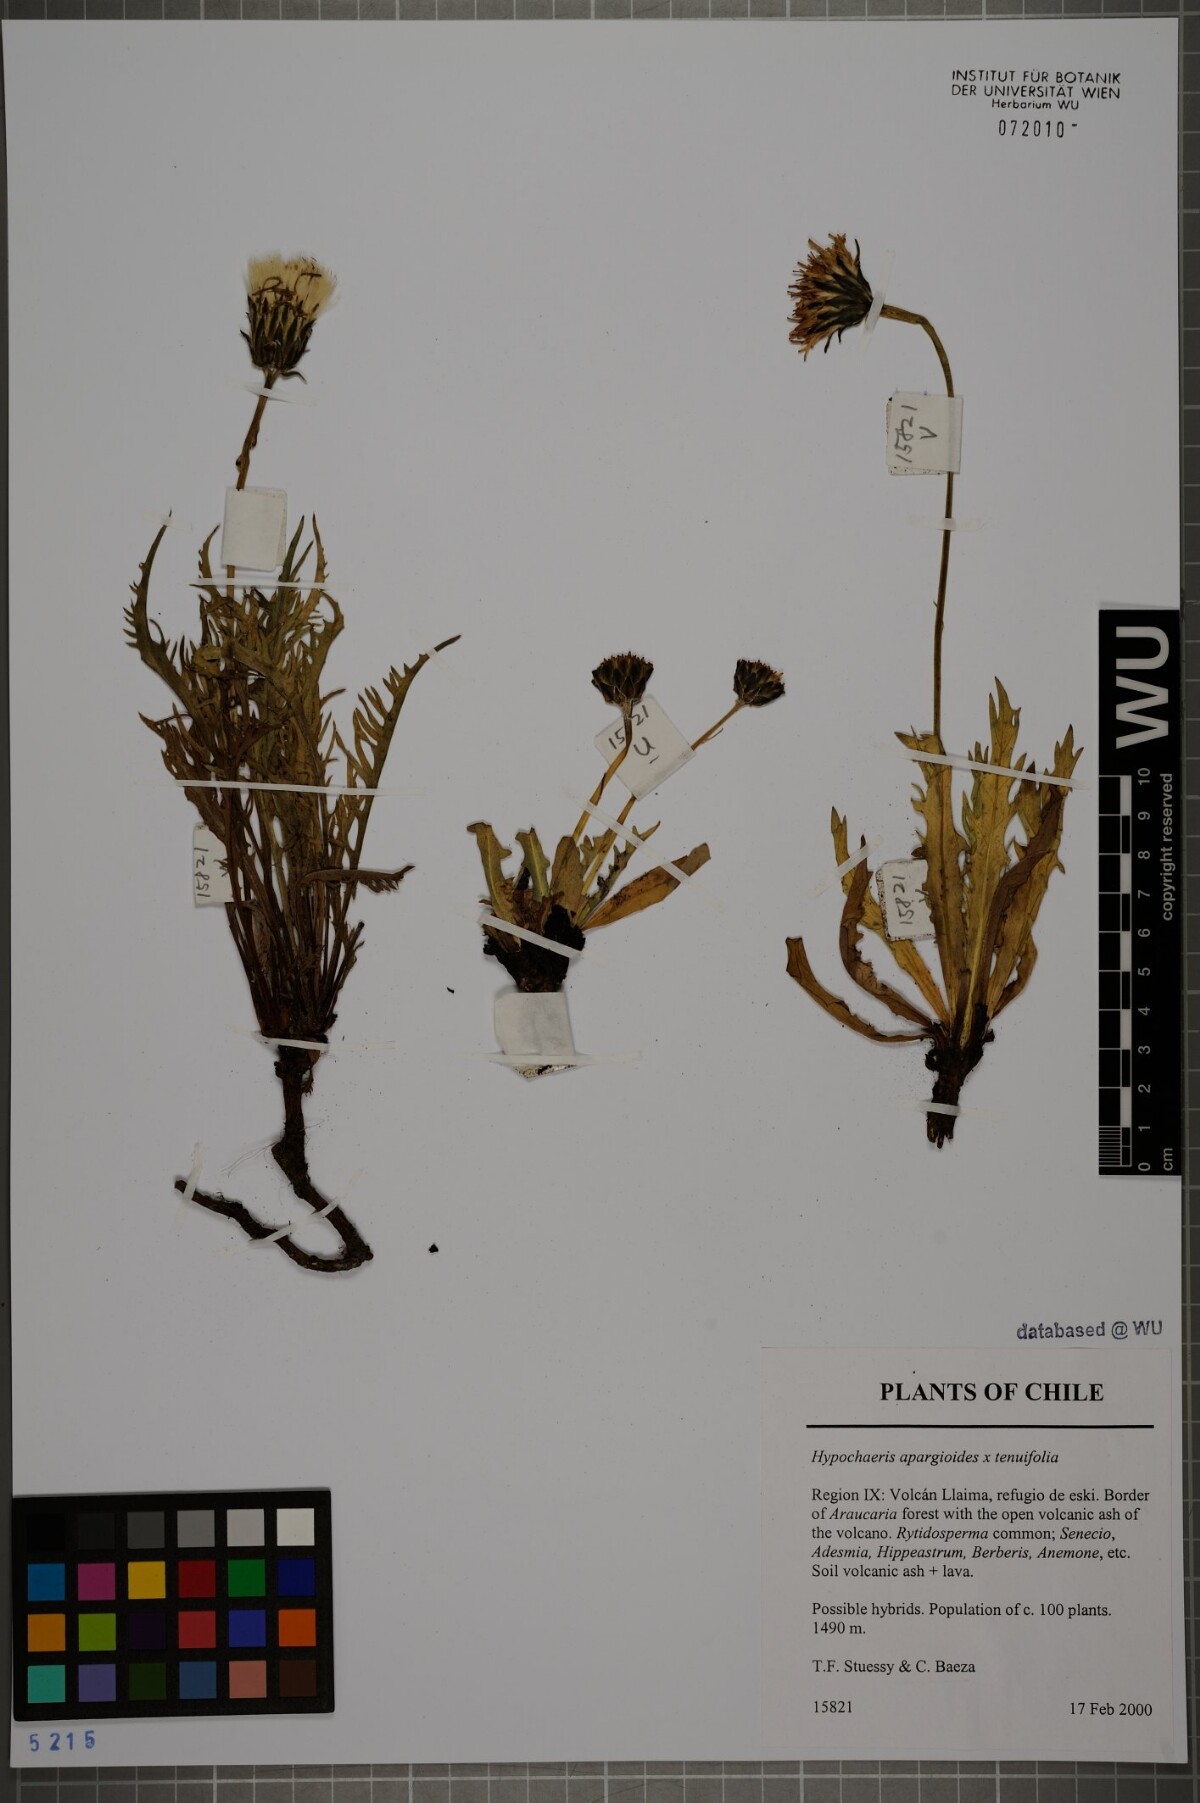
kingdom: Plantae
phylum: Tracheophyta
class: Magnoliopsida
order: Asterales
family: Asteraceae
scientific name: Asteraceae
